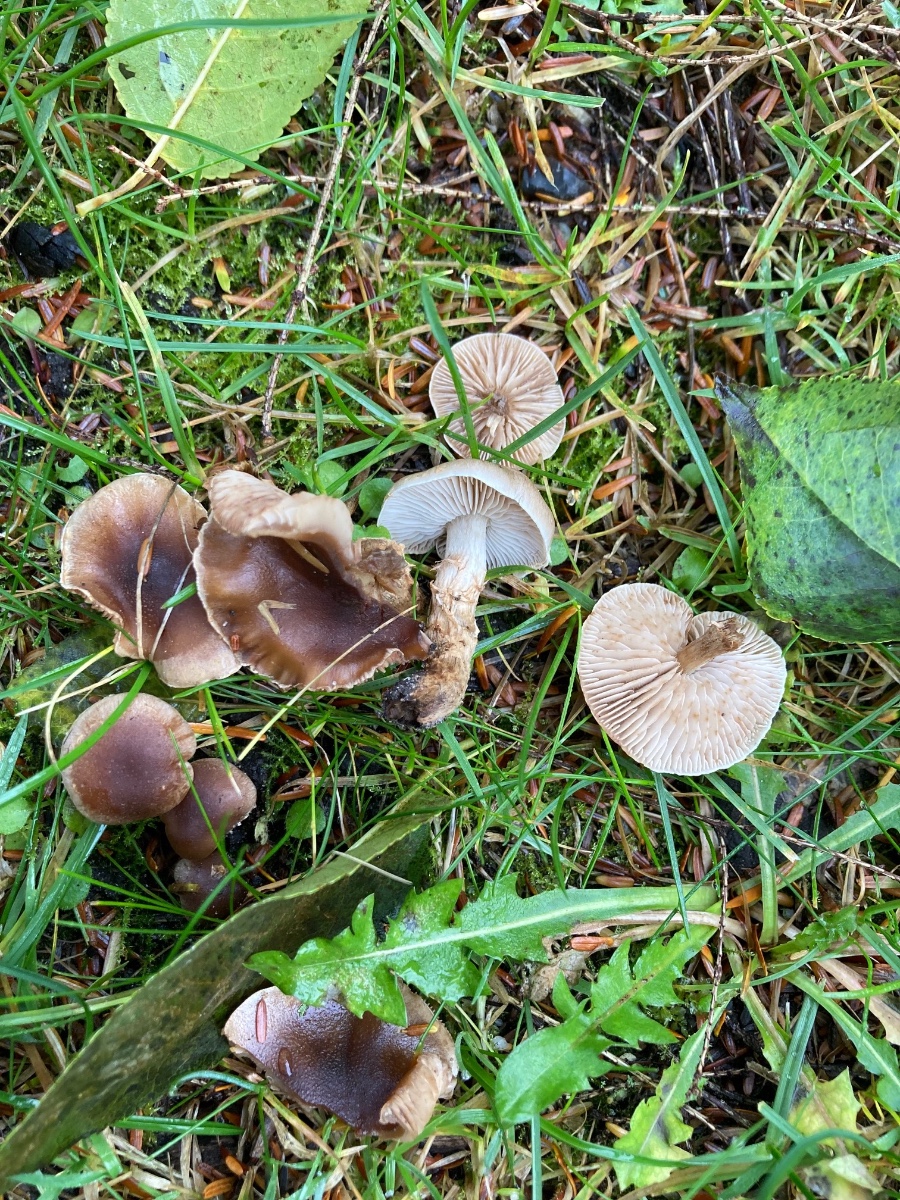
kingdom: Fungi
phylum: Basidiomycota
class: Agaricomycetes
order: Agaricales
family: Hymenogastraceae
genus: Hebeloma
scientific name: Hebeloma mesophaeum
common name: lerbrun tåreblad
